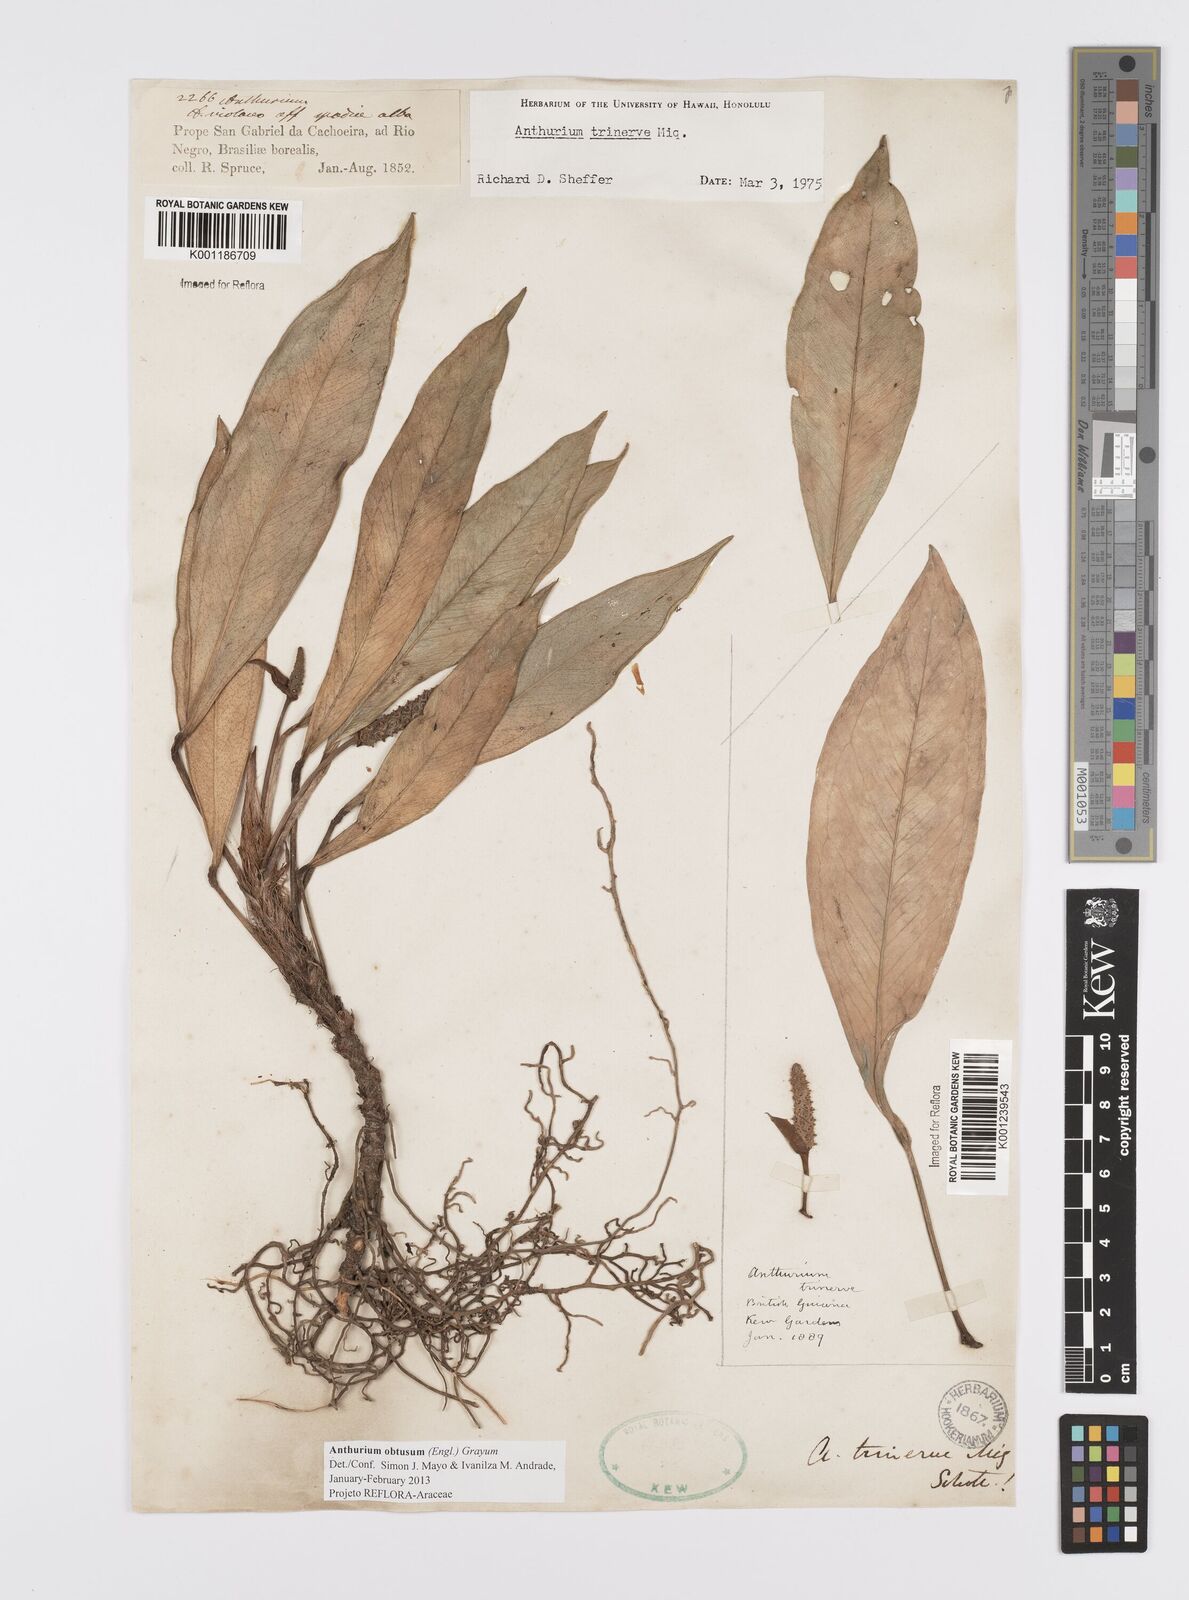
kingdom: Plantae
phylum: Tracheophyta
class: Liliopsida
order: Alismatales
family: Araceae
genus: Anthurium
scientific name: Anthurium obtusum
